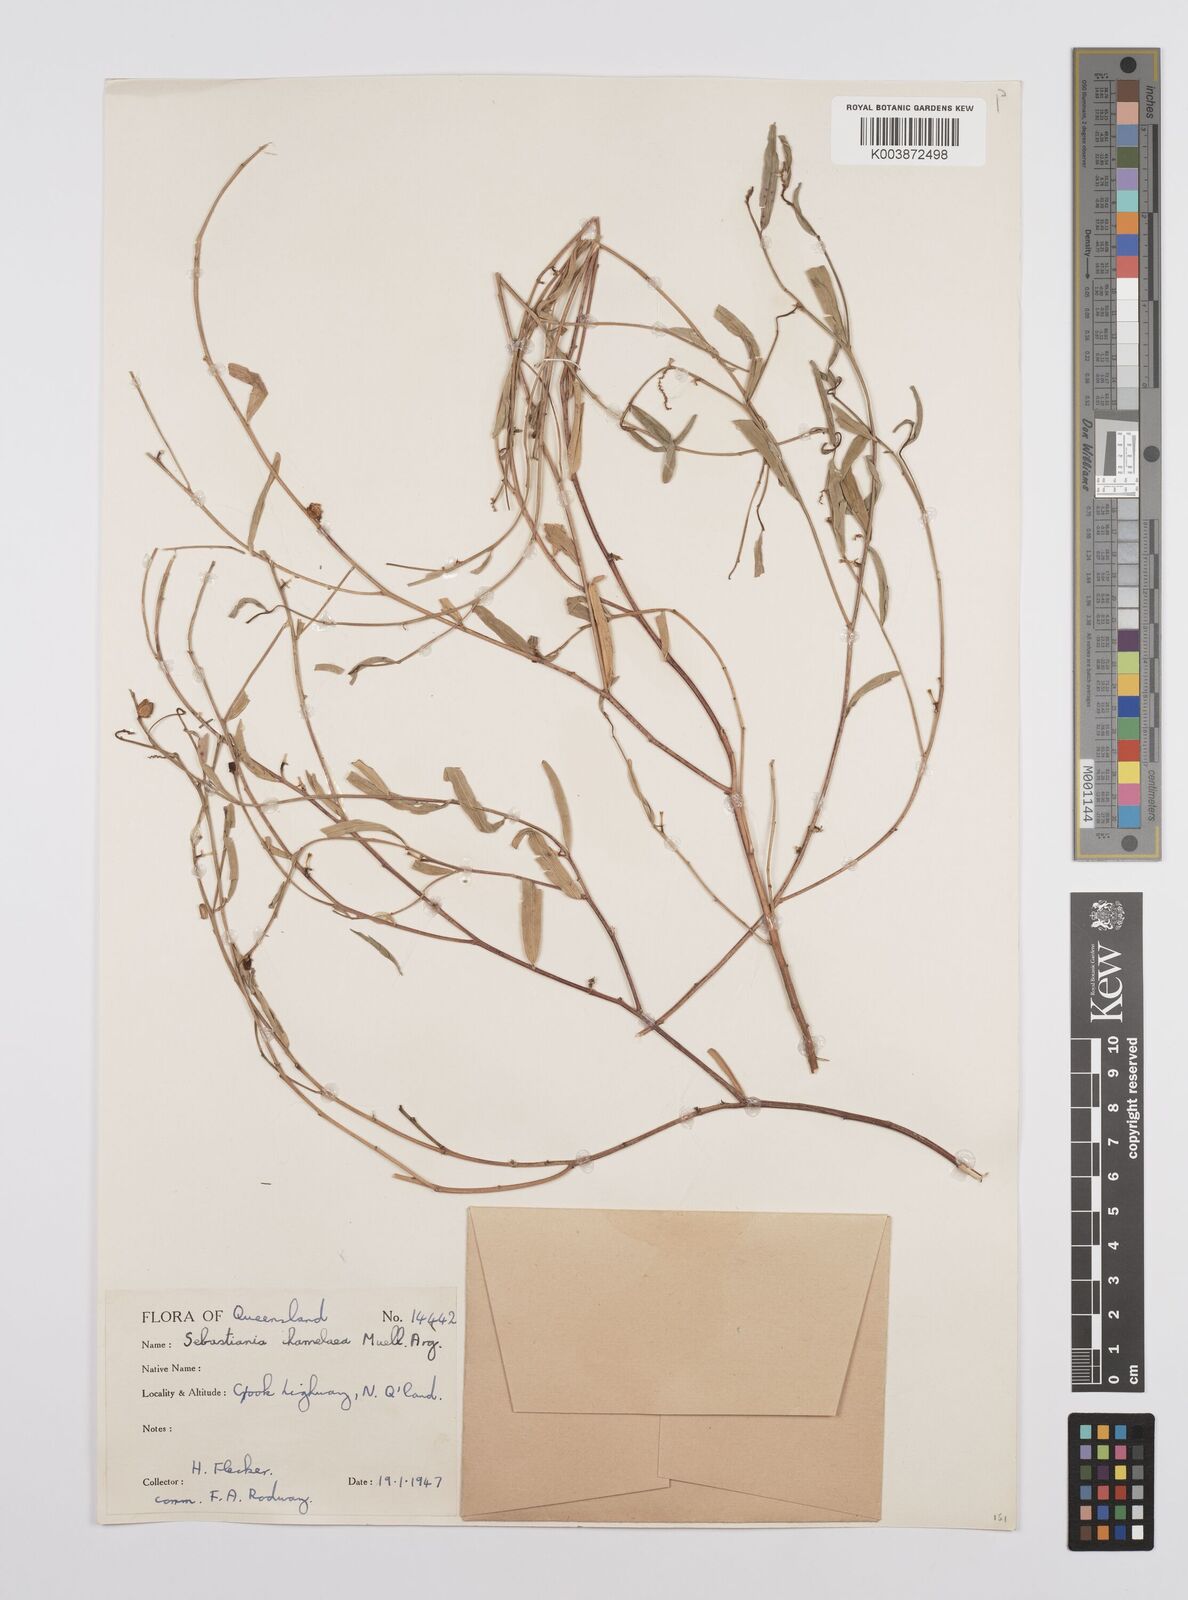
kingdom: Plantae
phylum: Tracheophyta
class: Magnoliopsida
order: Malpighiales
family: Euphorbiaceae
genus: Microstachys
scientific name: Microstachys chamaelea
